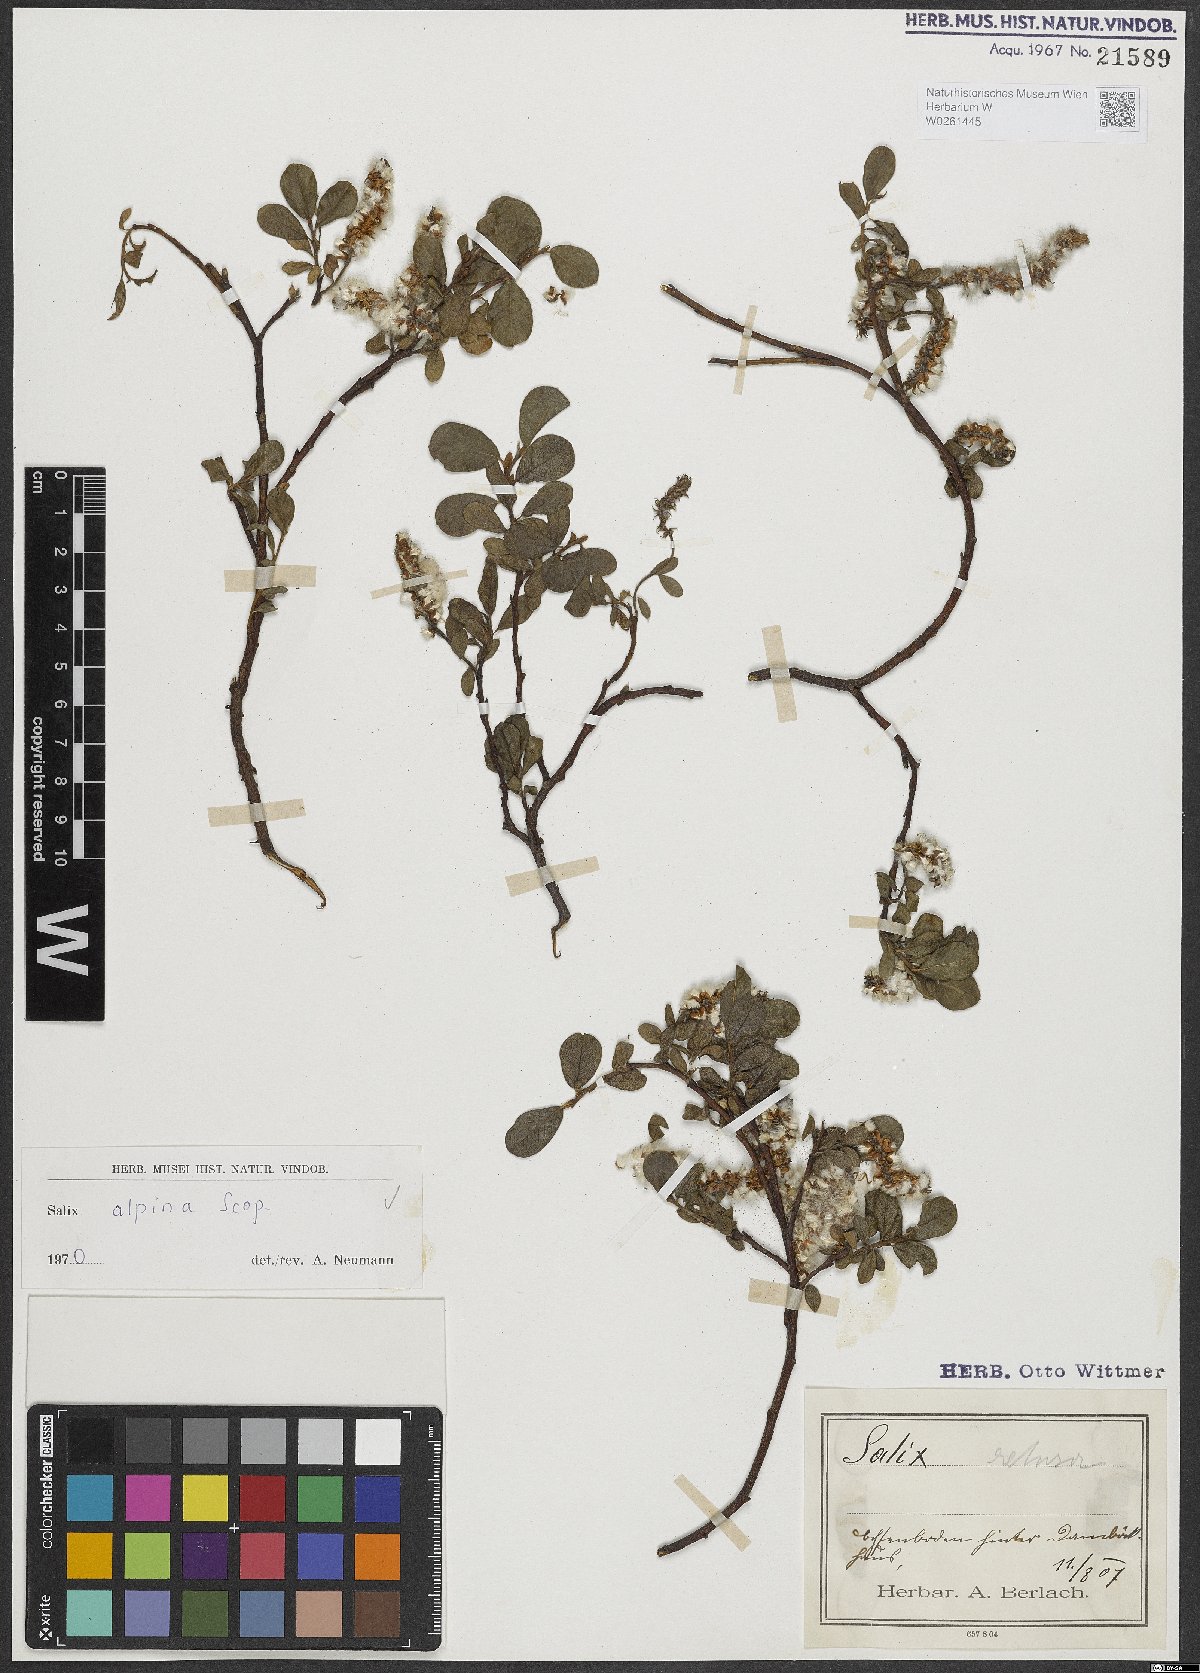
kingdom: Plantae
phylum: Tracheophyta
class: Magnoliopsida
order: Malpighiales
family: Salicaceae
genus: Salix
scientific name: Salix alpina
